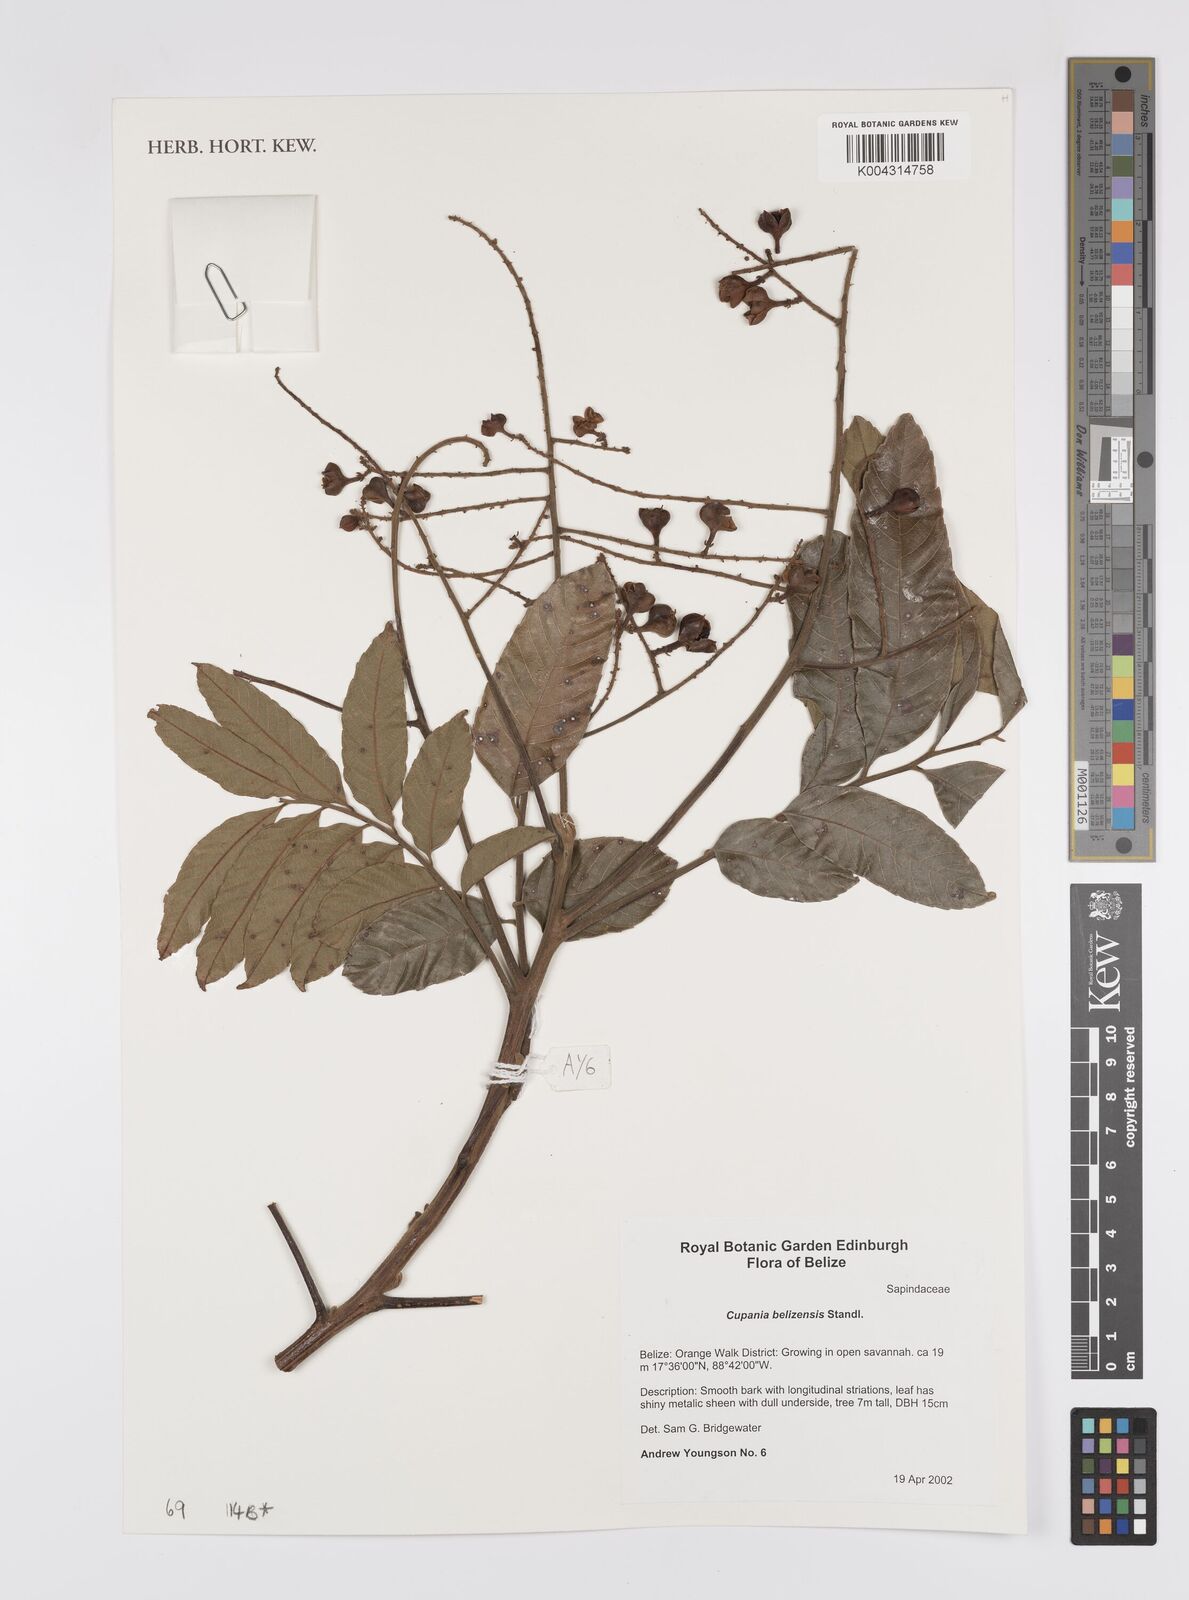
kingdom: Plantae
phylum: Tracheophyta
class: Magnoliopsida
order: Sapindales
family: Sapindaceae
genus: Cupania
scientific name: Cupania belizensis
